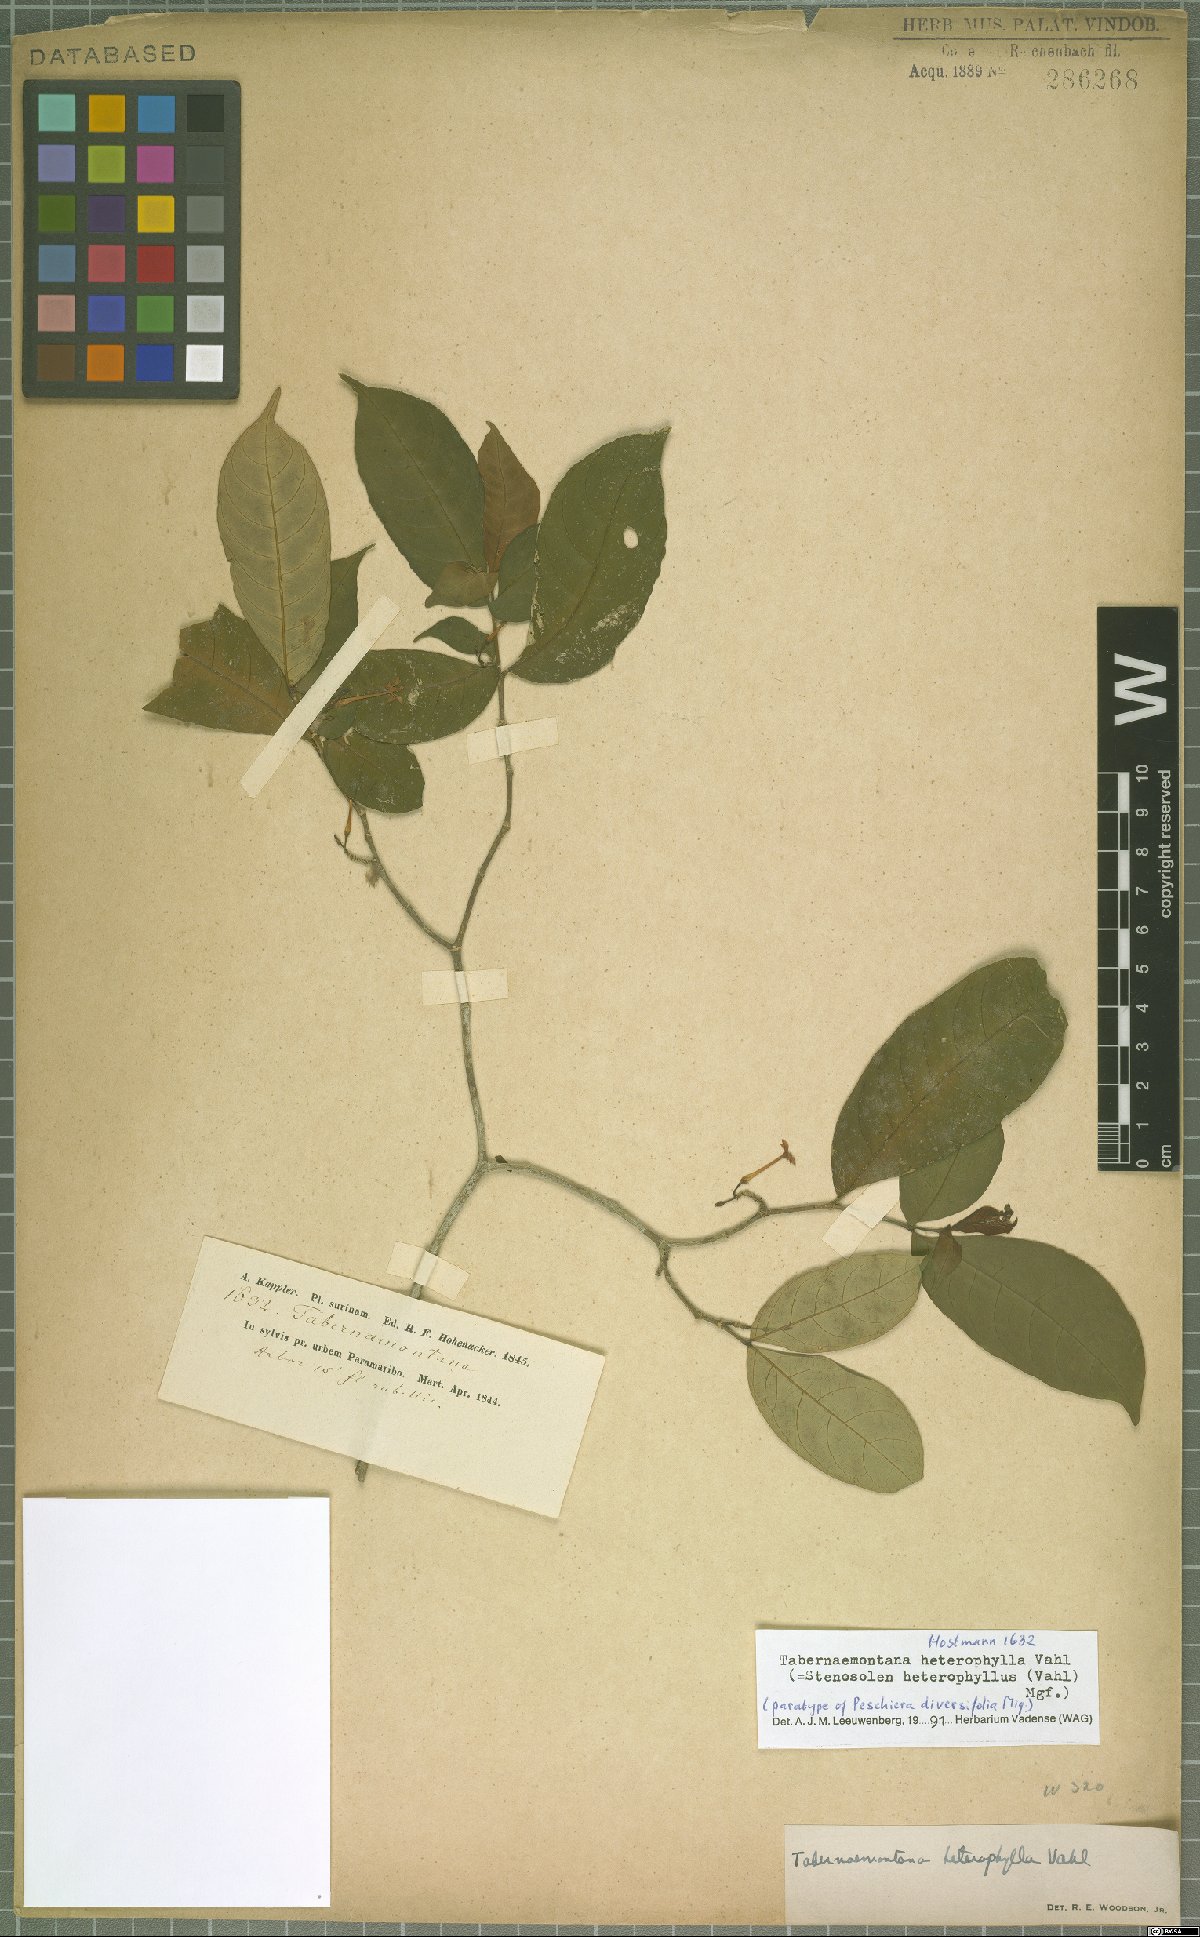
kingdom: Plantae
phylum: Tracheophyta
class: Magnoliopsida
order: Gentianales
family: Apocynaceae
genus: Tabernaemontana
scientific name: Tabernaemontana heterophylla
